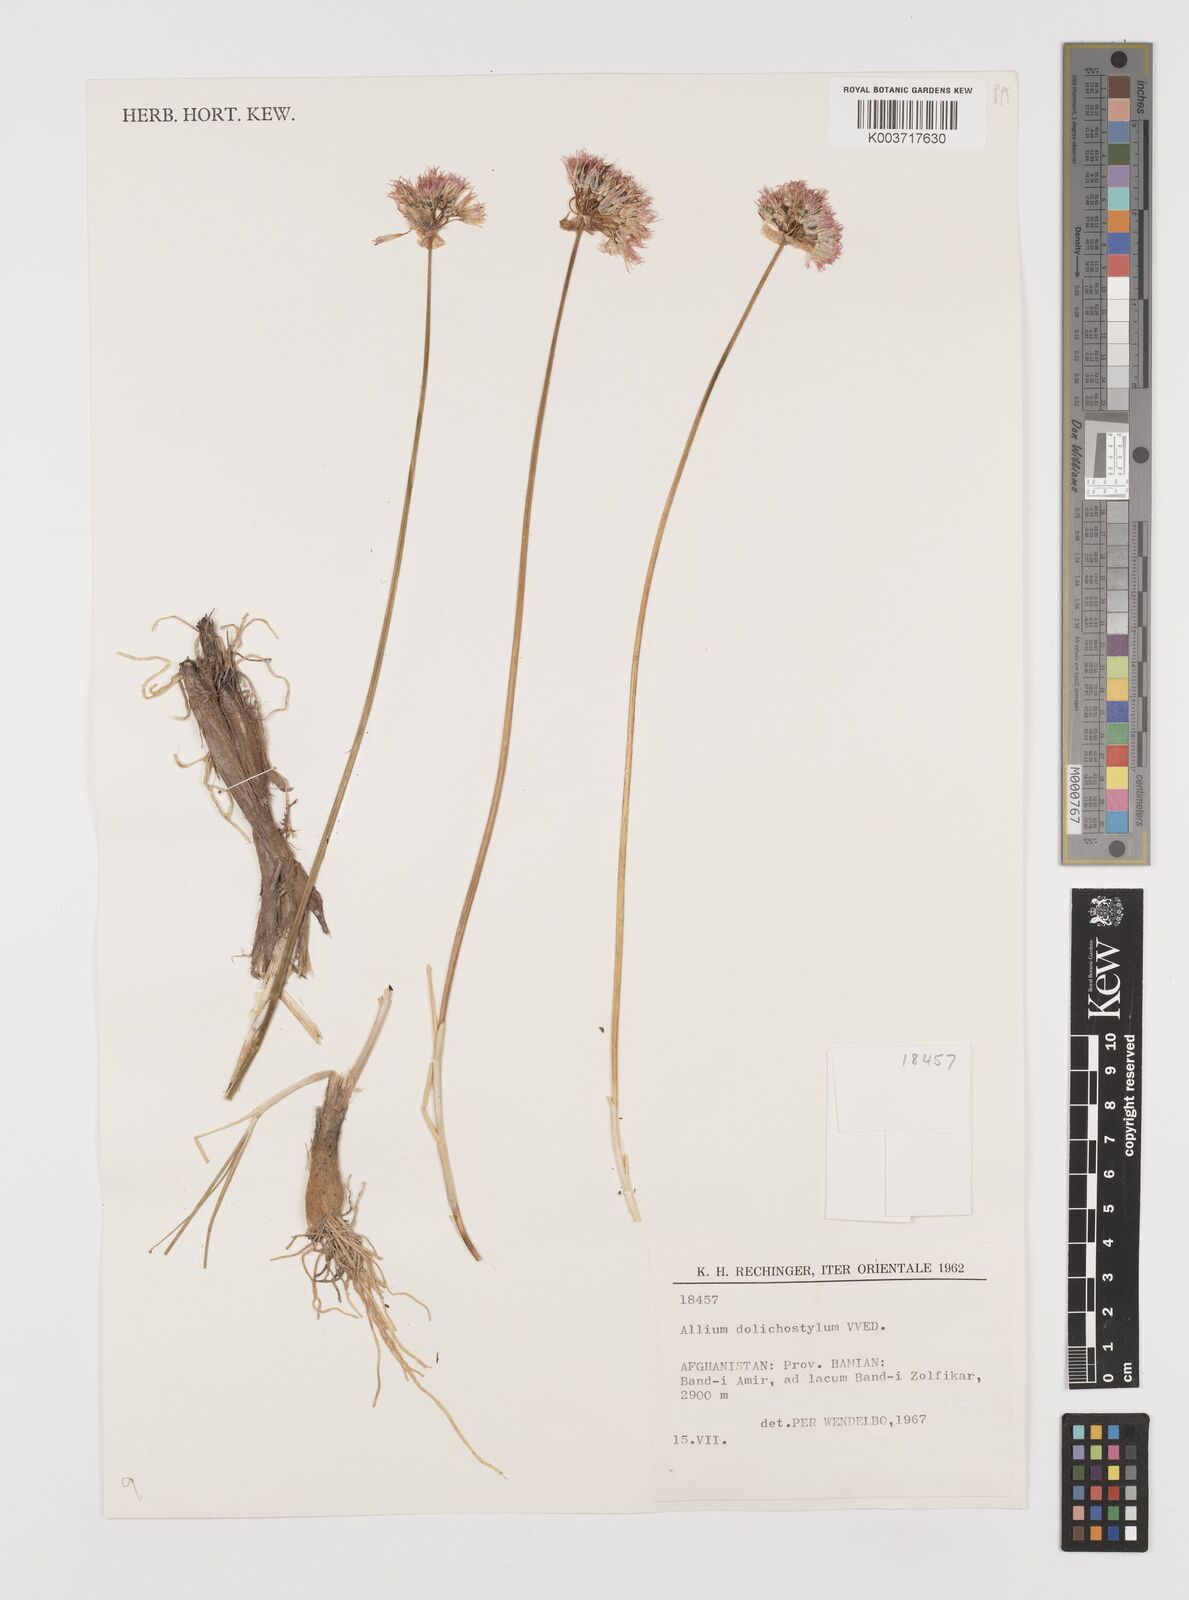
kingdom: Plantae
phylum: Tracheophyta
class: Liliopsida
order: Asparagales
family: Amaryllidaceae
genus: Allium
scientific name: Allium dolichostylum
